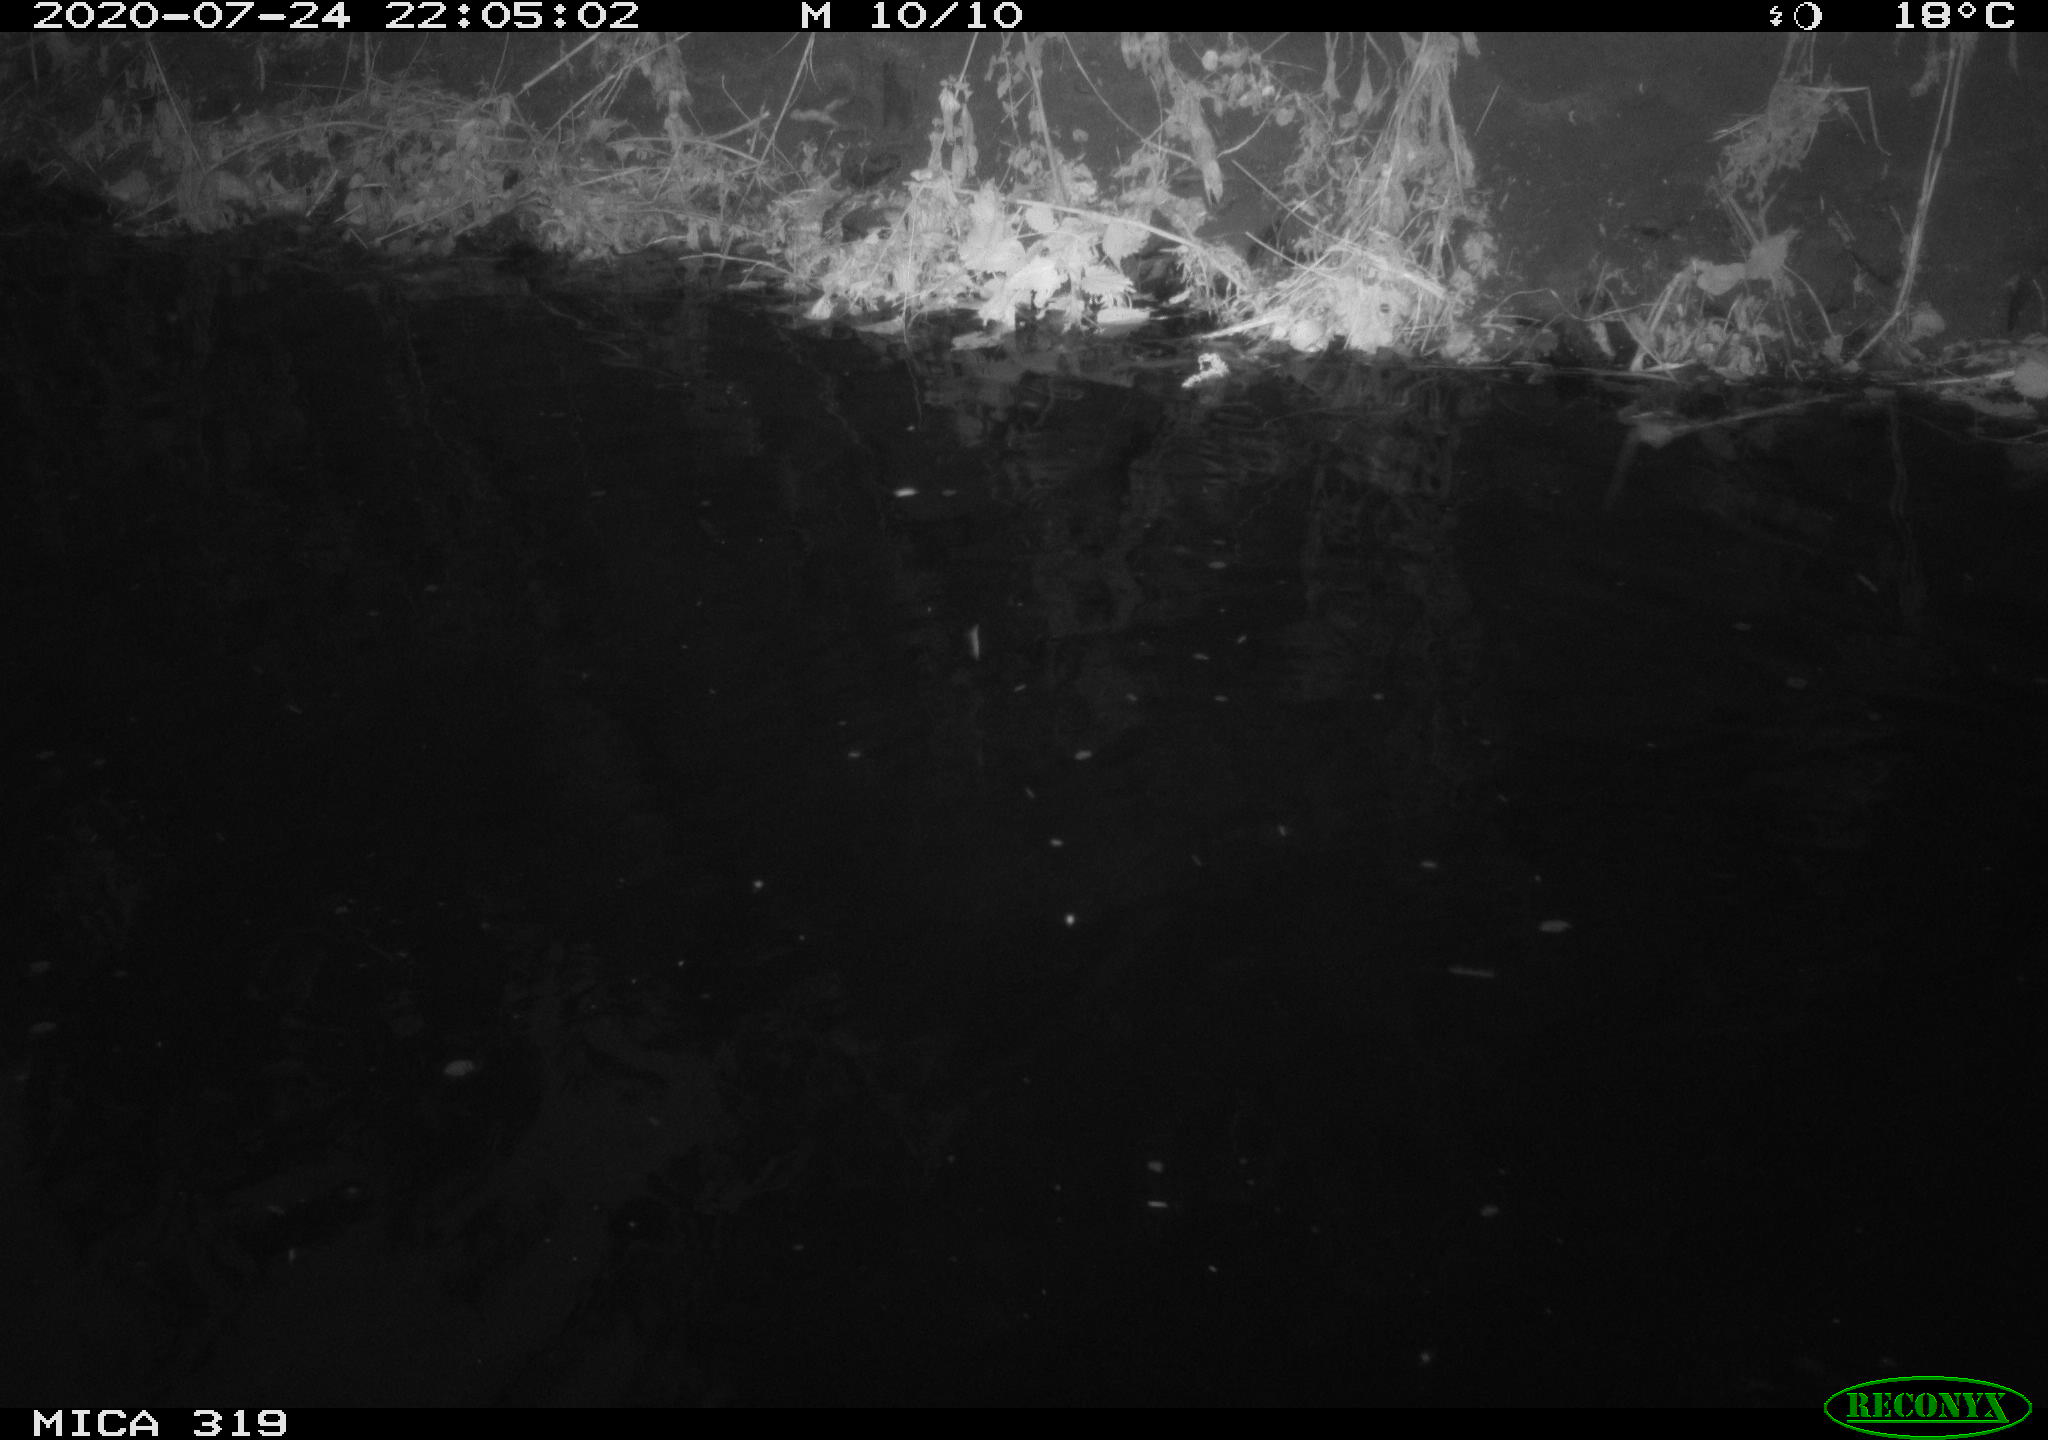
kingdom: Animalia
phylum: Chordata
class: Aves
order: Anseriformes
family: Anatidae
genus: Anas
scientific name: Anas platyrhynchos
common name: Mallard
